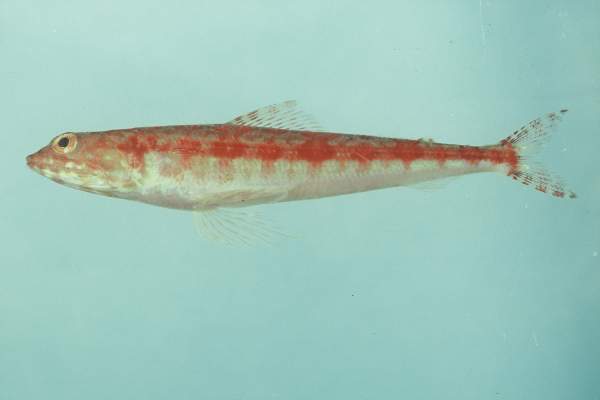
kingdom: Animalia
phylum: Chordata
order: Aulopiformes
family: Synodontidae
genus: Synodus
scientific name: Synodus variegatus
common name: Variegated lizardfish
